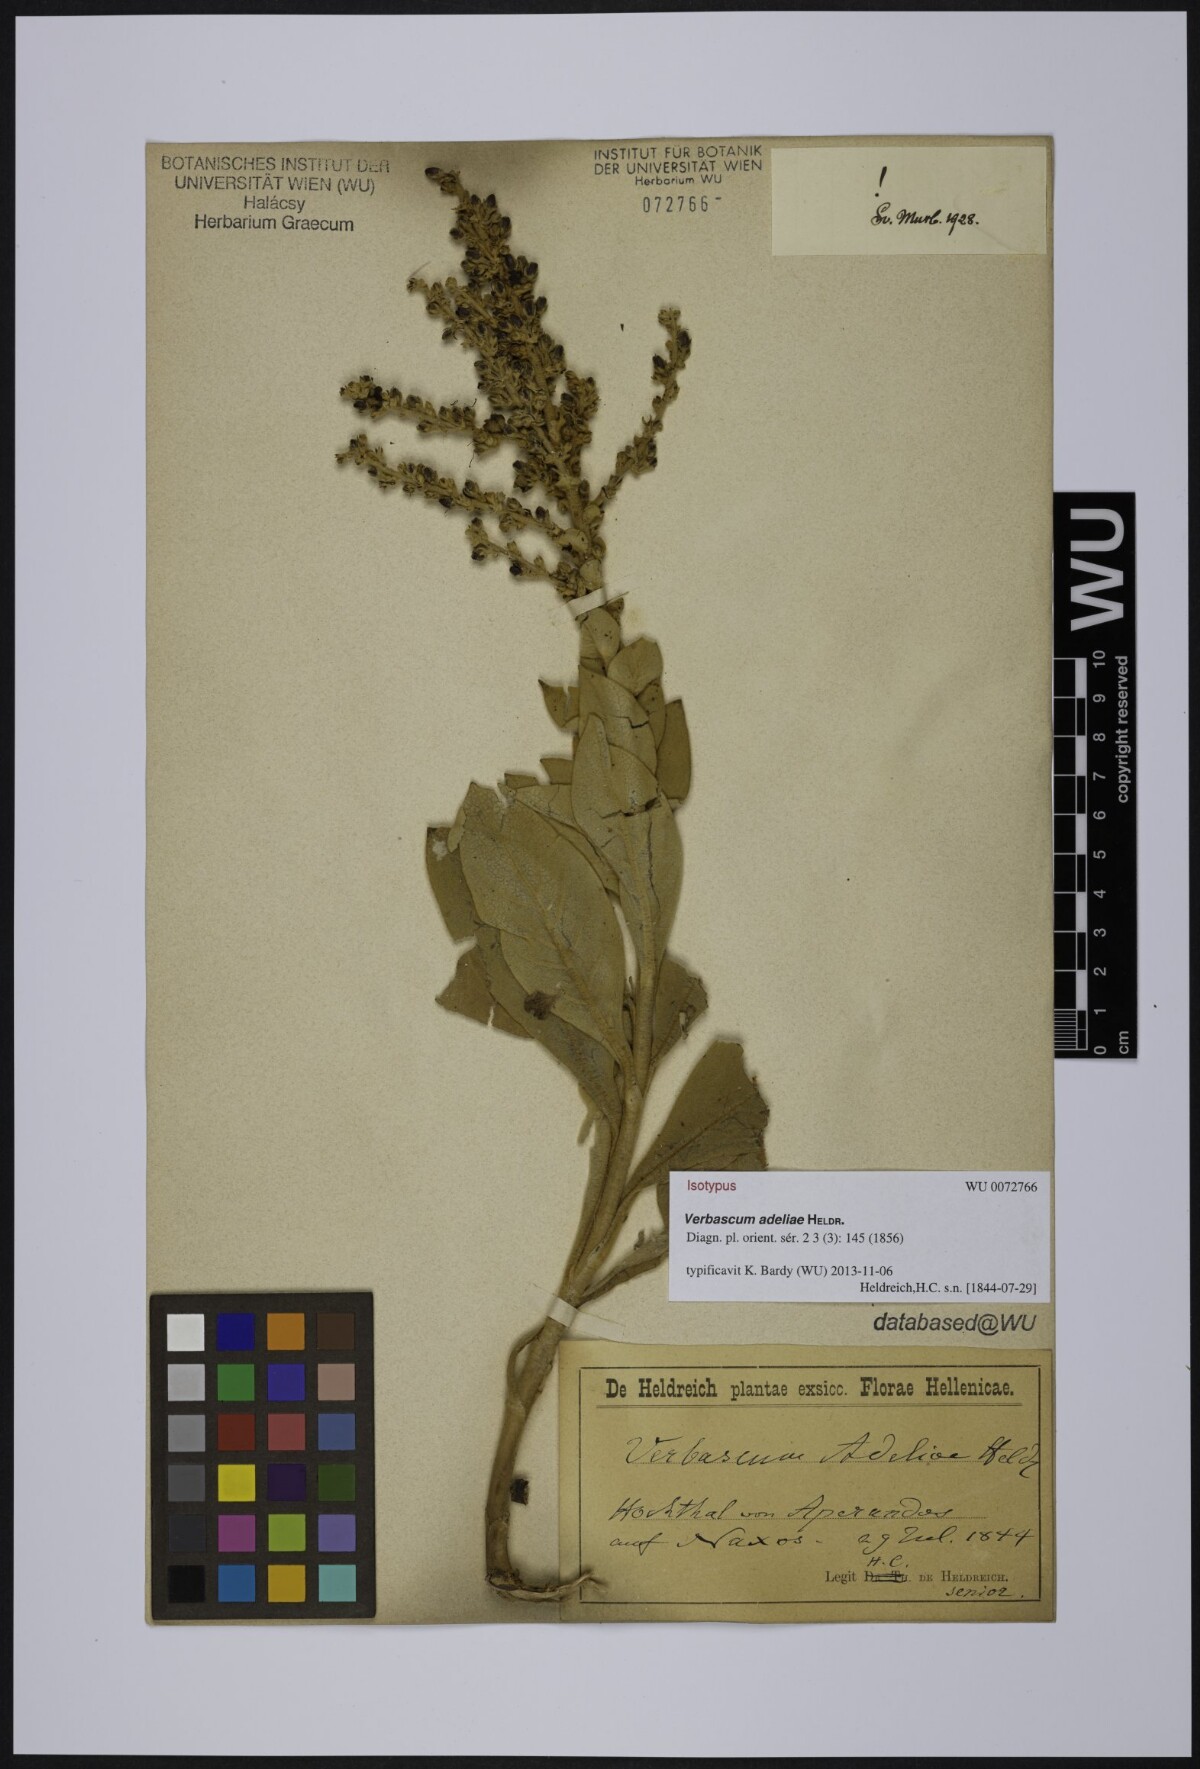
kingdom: Plantae
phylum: Tracheophyta
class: Magnoliopsida
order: Lamiales
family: Scrophulariaceae
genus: Verbascum
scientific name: Verbascum adeliae
